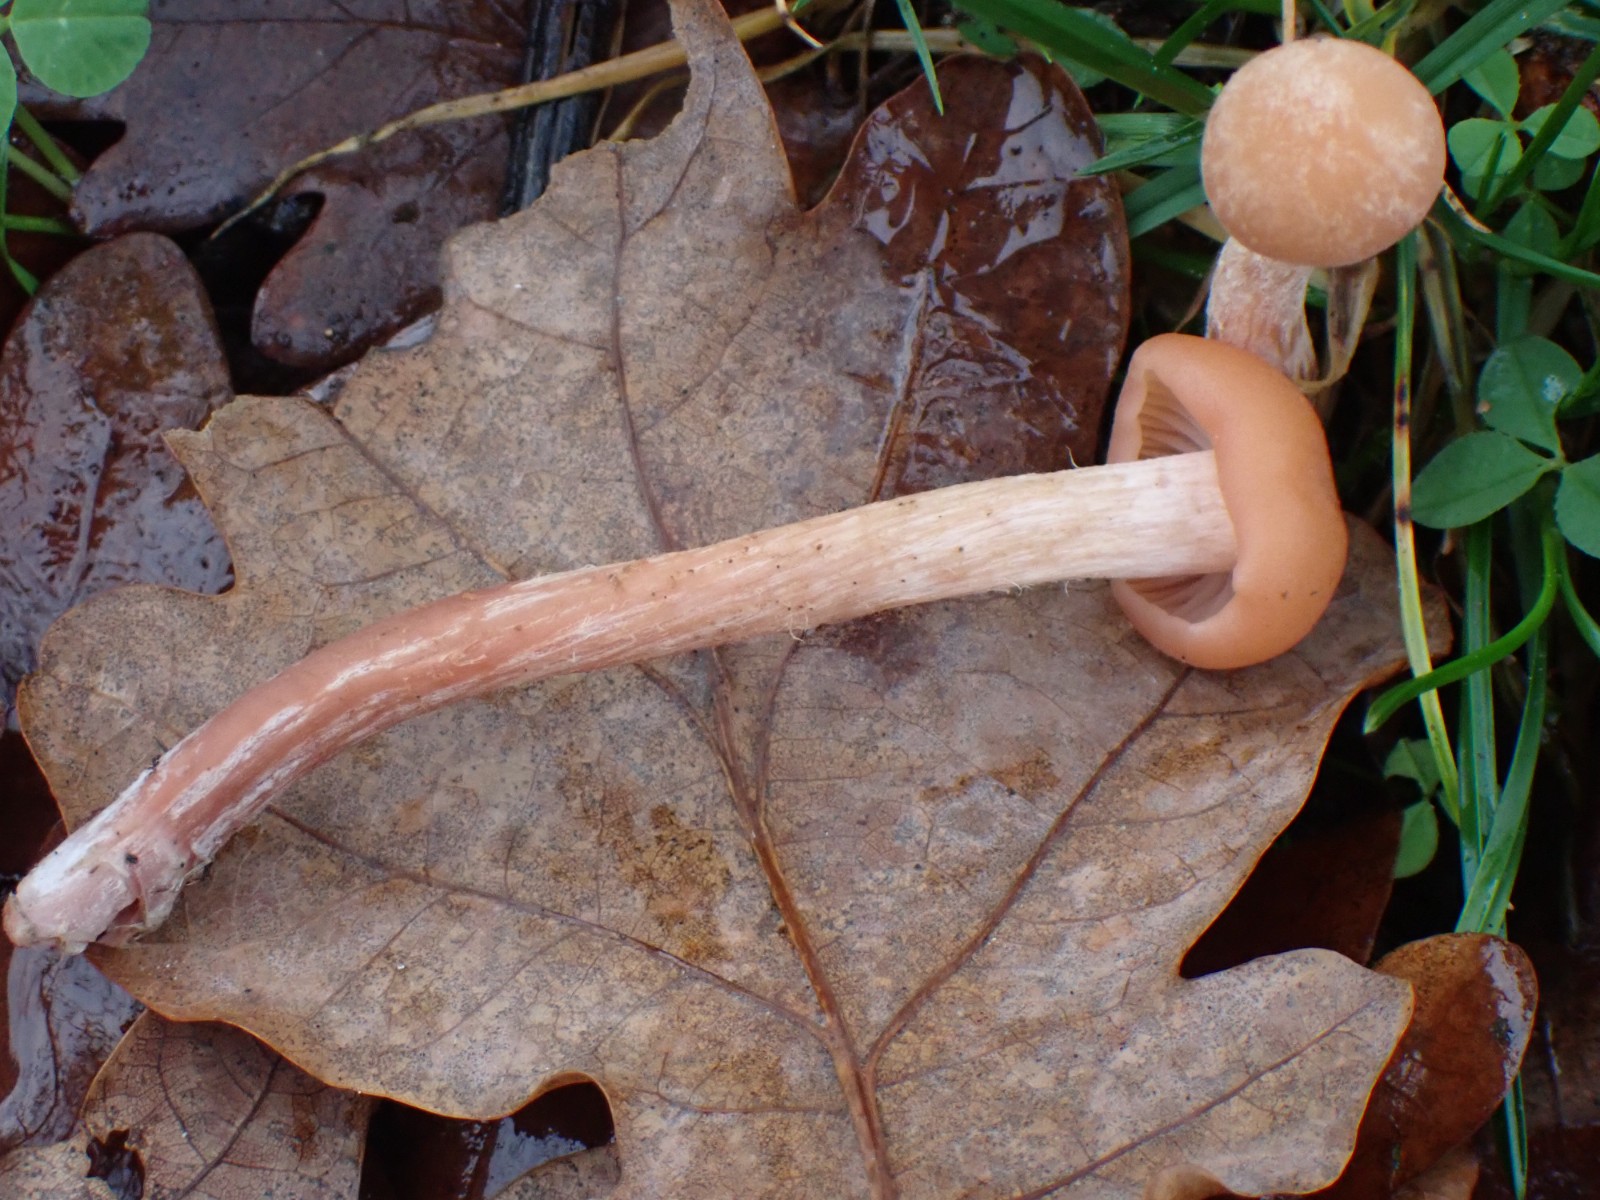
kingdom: Fungi
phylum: Basidiomycota
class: Agaricomycetes
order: Agaricales
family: Hydnangiaceae
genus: Laccaria
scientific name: Laccaria
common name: ametysthat
